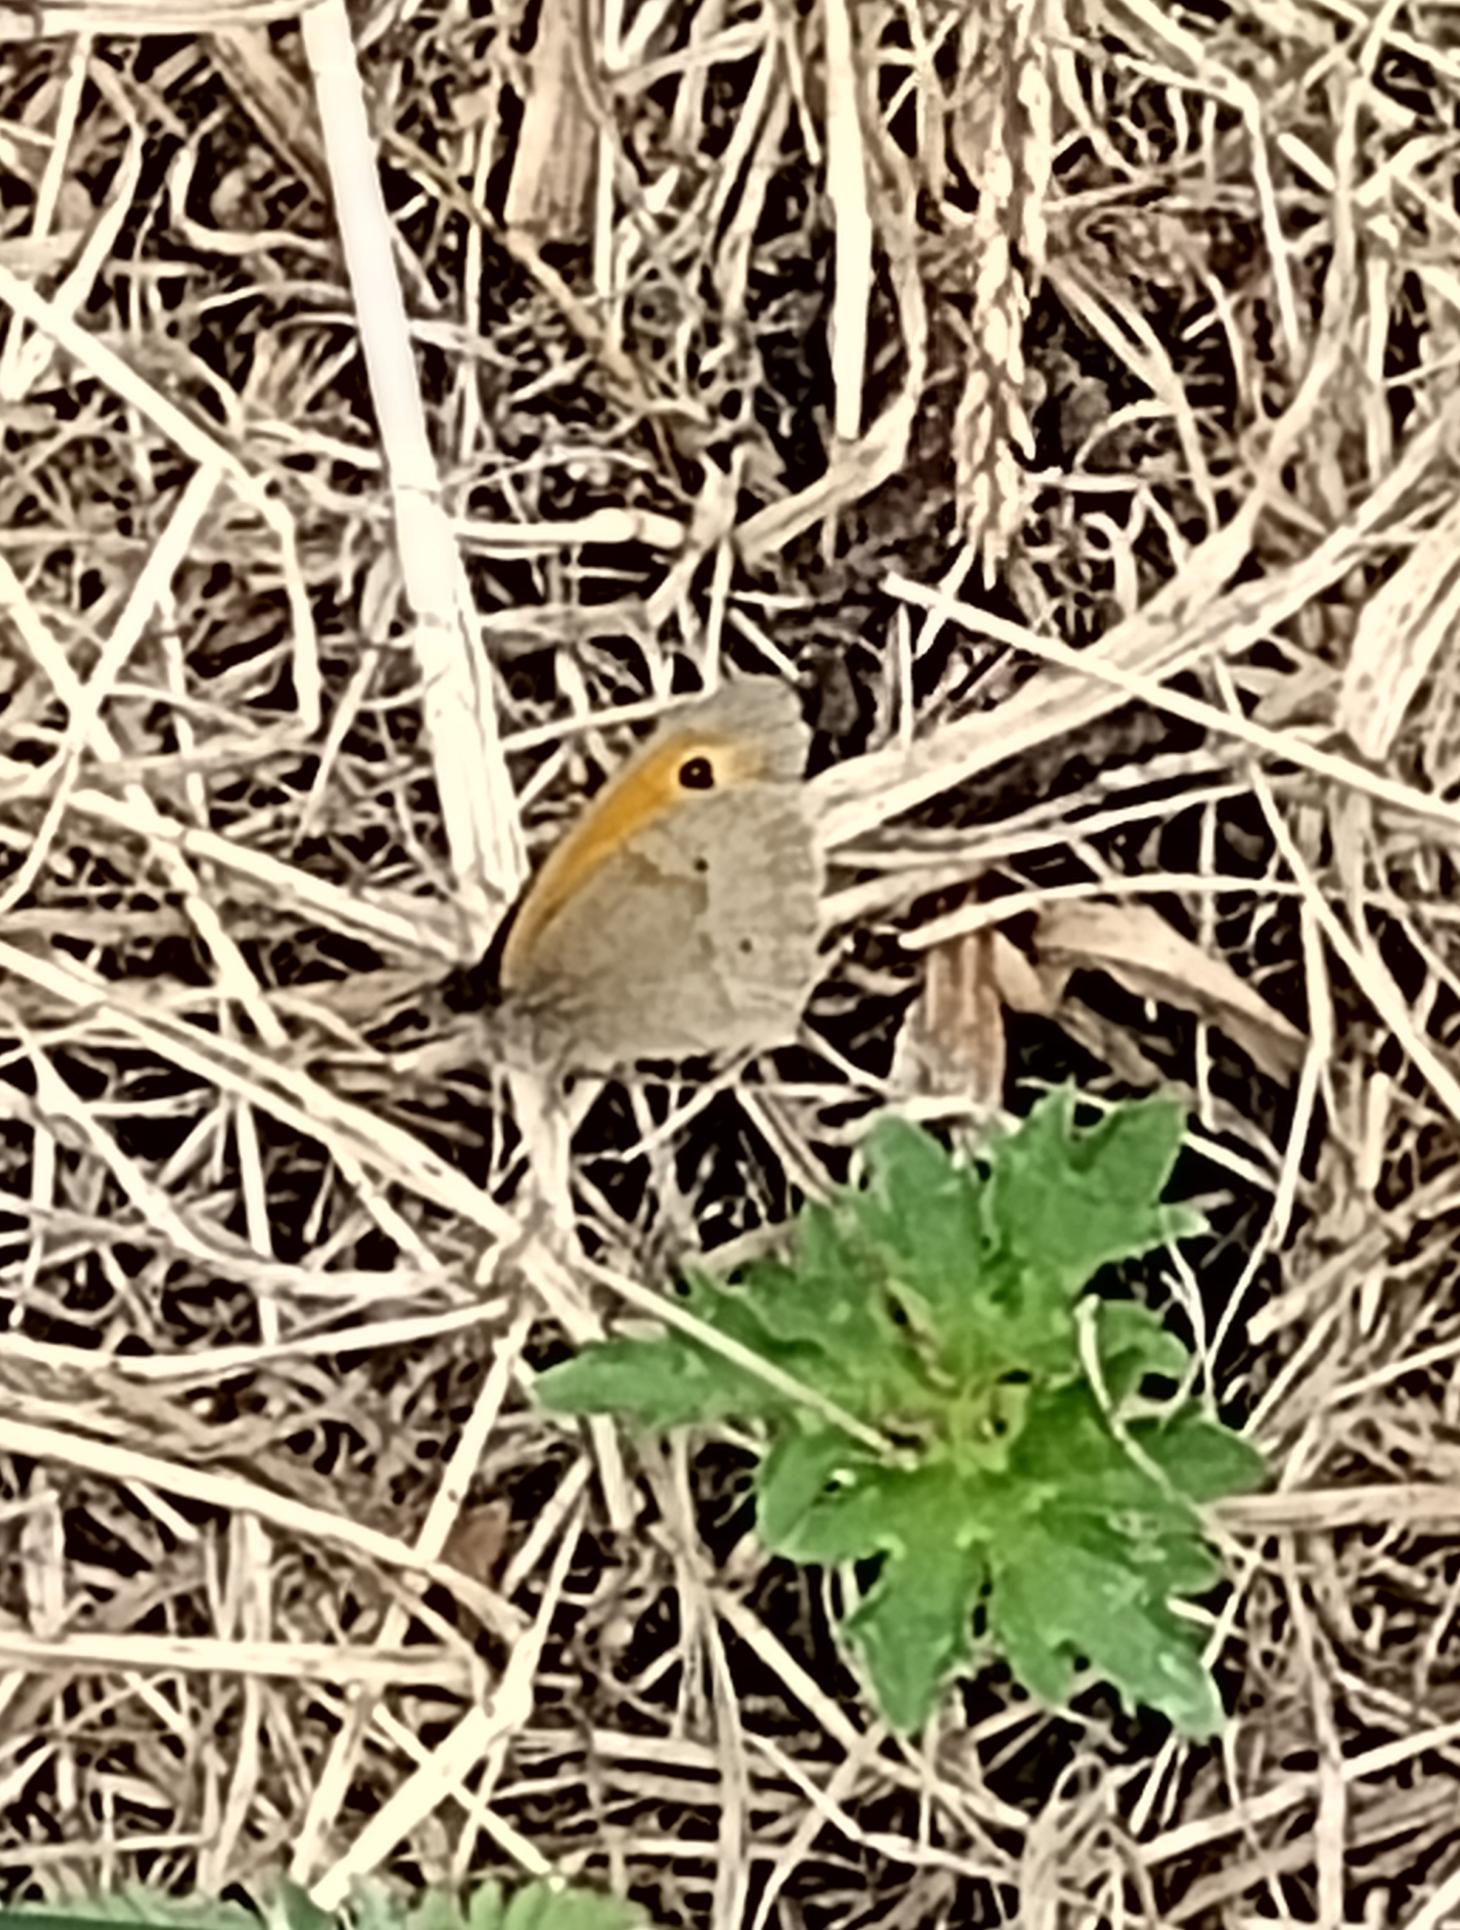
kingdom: Animalia
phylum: Arthropoda
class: Insecta
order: Lepidoptera
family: Nymphalidae
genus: Maniola
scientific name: Maniola jurtina
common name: Græsrandøje
